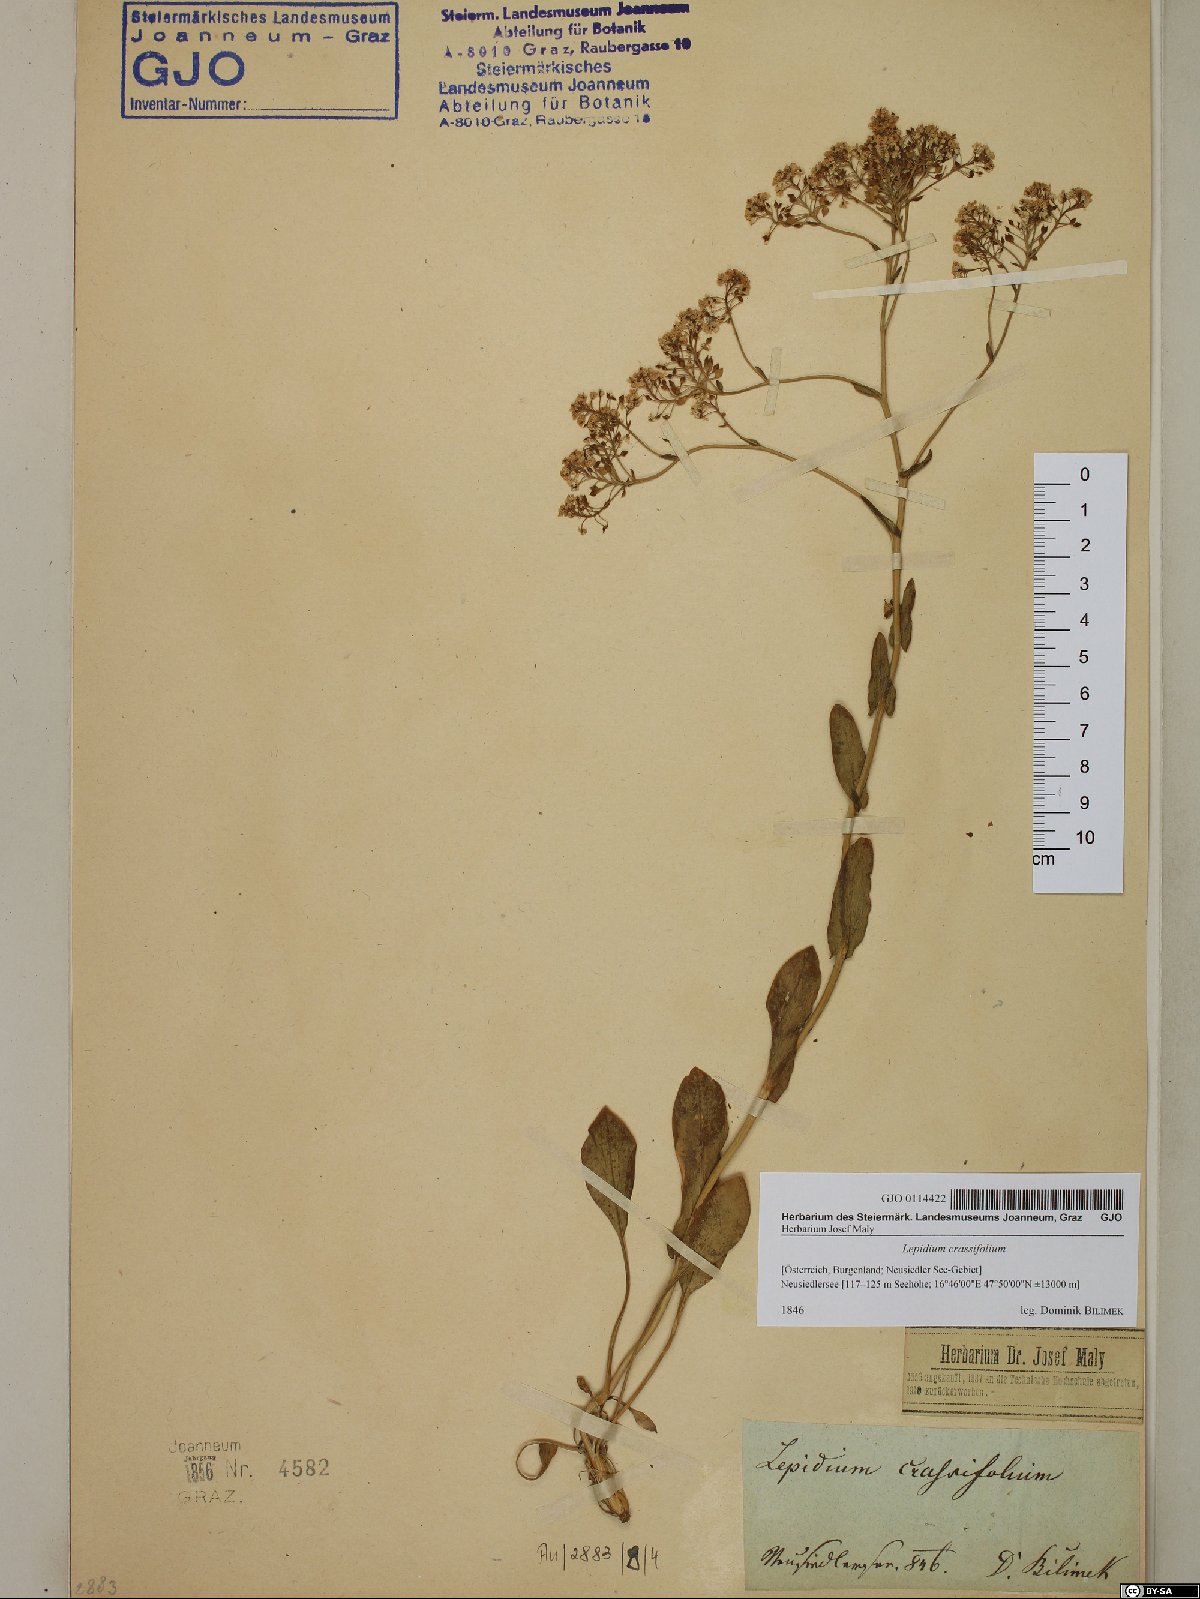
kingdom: Plantae
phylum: Tracheophyta
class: Magnoliopsida
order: Brassicales
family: Brassicaceae
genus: Lepidium
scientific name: Lepidium cartilagineum
